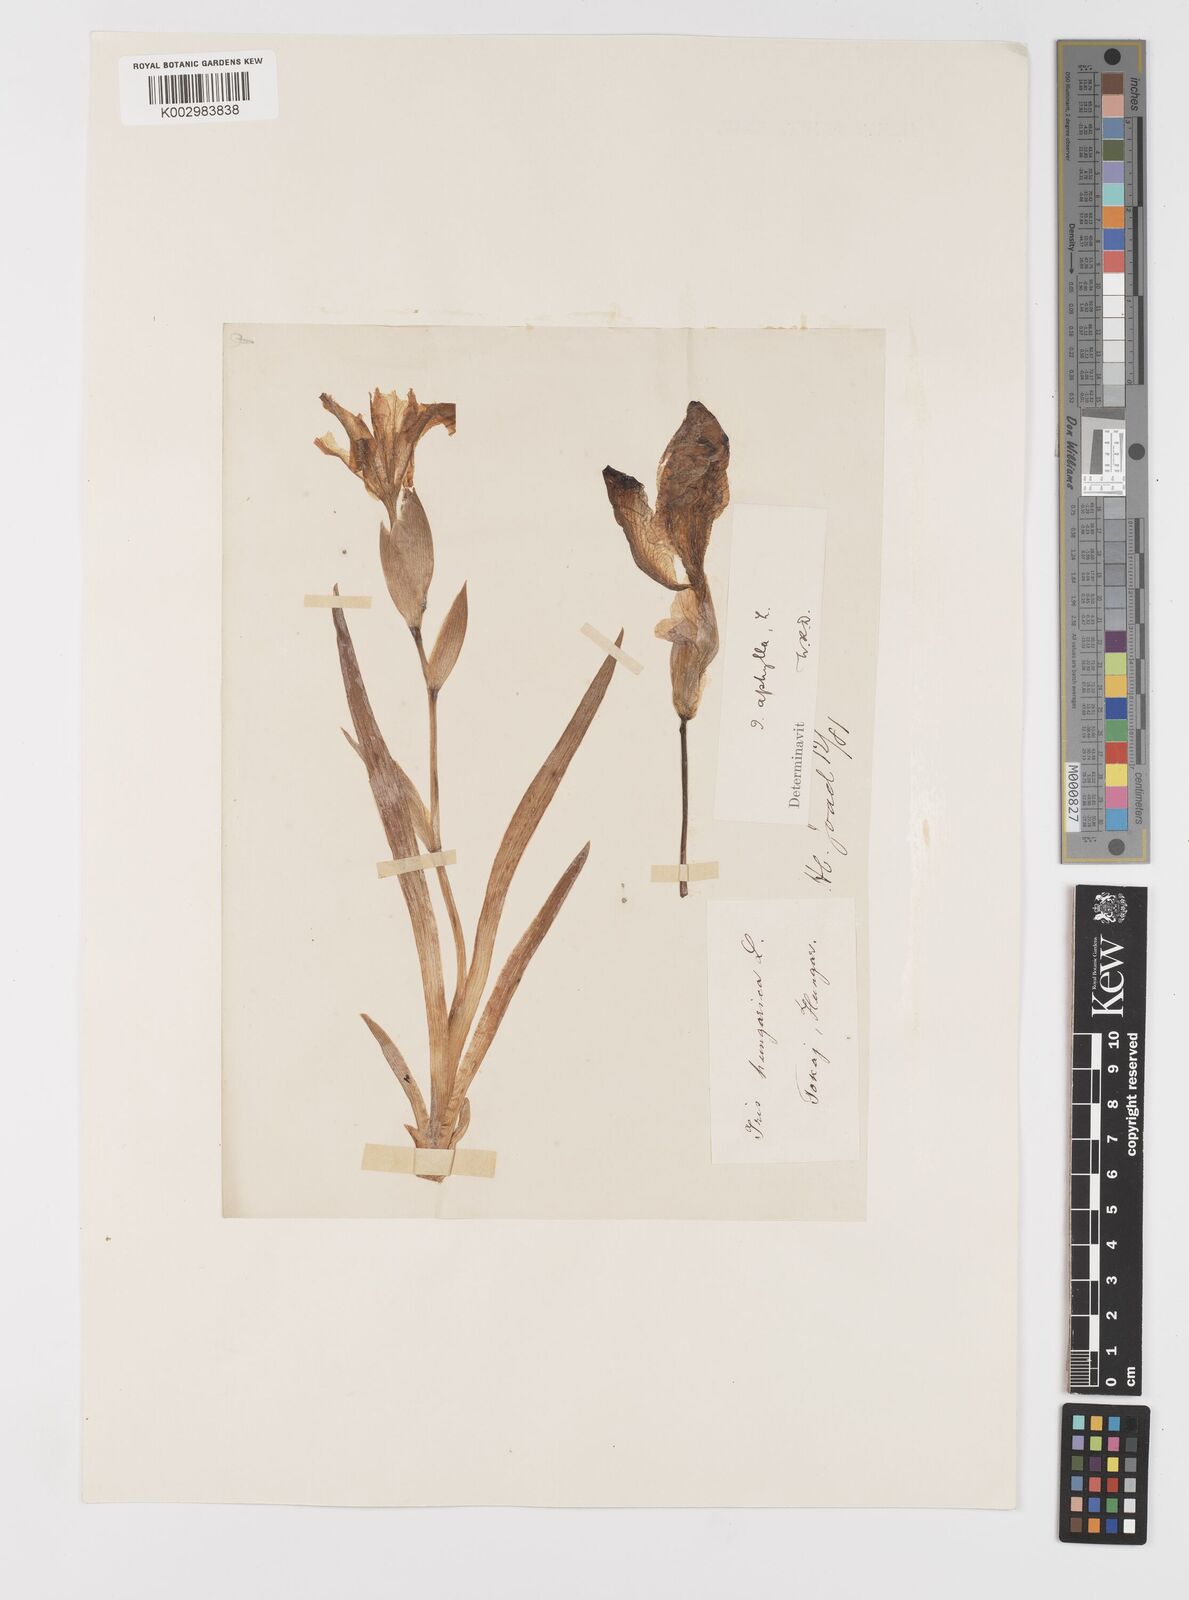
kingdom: Plantae
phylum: Tracheophyta
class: Liliopsida
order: Asparagales
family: Iridaceae
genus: Iris
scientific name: Iris aphylla
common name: Stool iris
